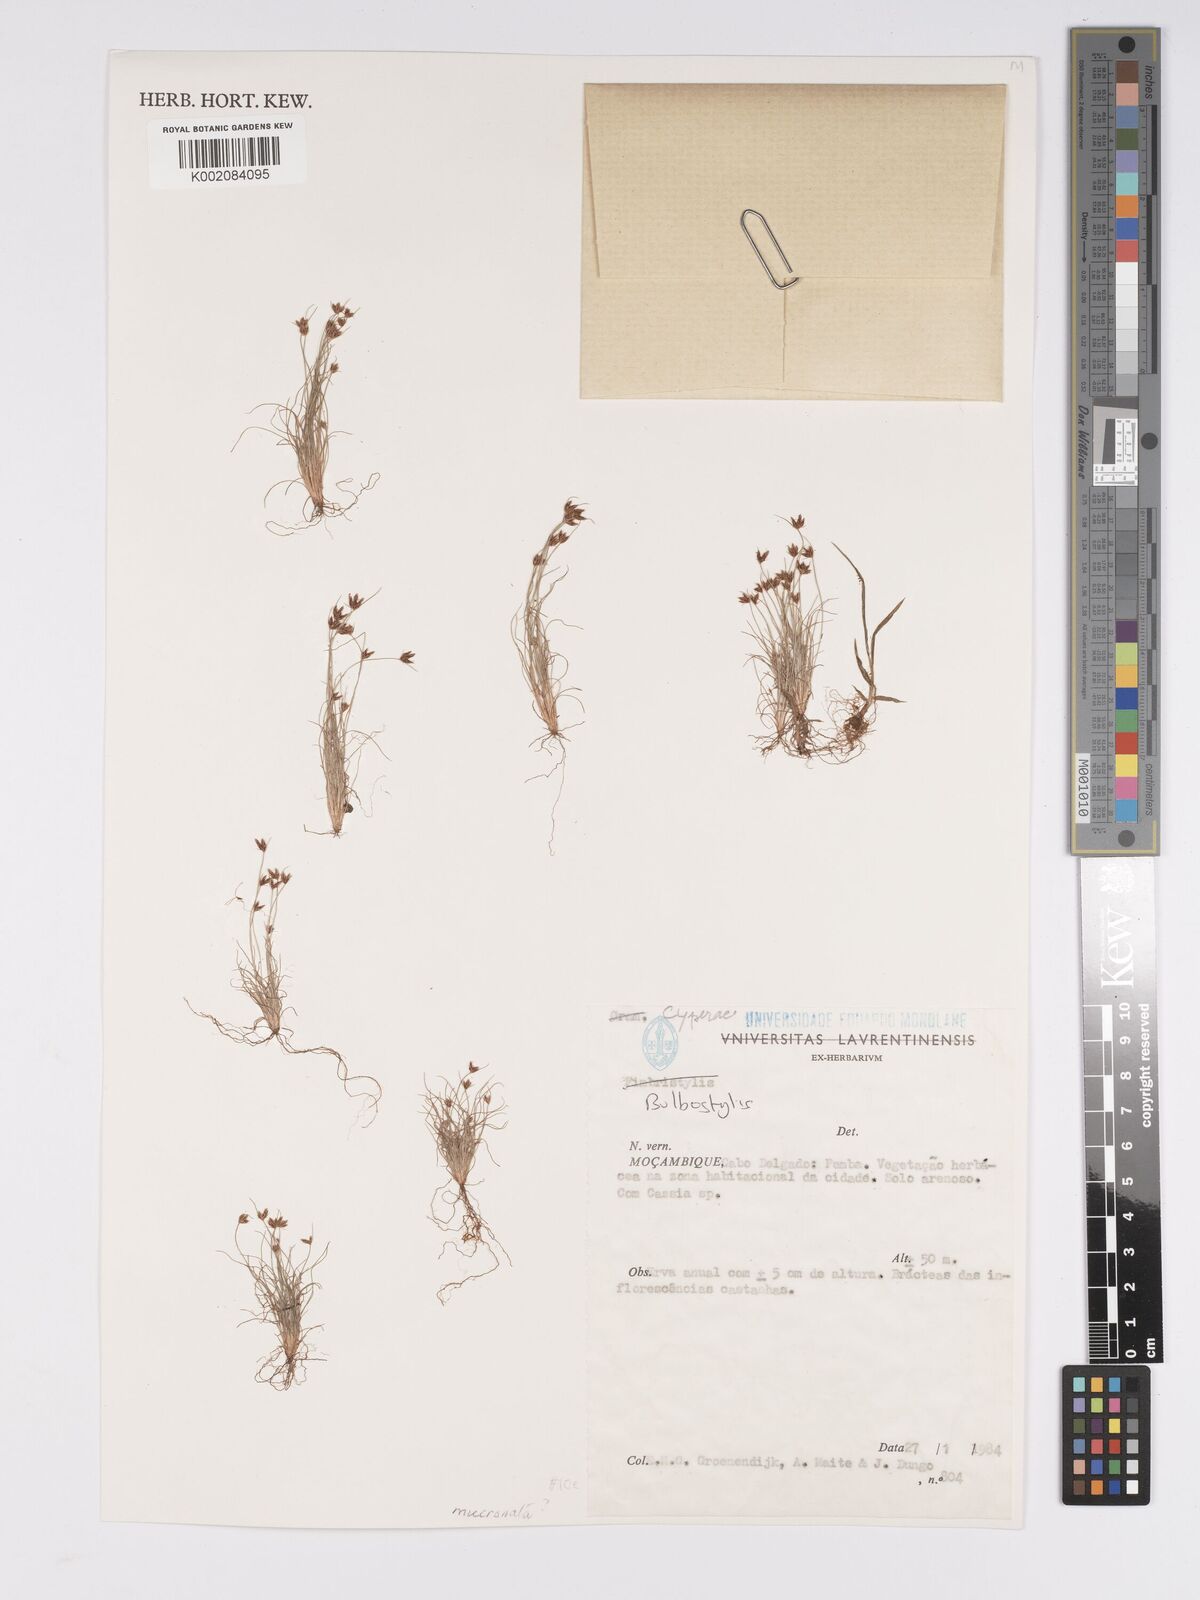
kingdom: Plantae
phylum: Tracheophyta
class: Liliopsida
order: Poales
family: Cyperaceae
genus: Bulbostylis
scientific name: Bulbostylis
